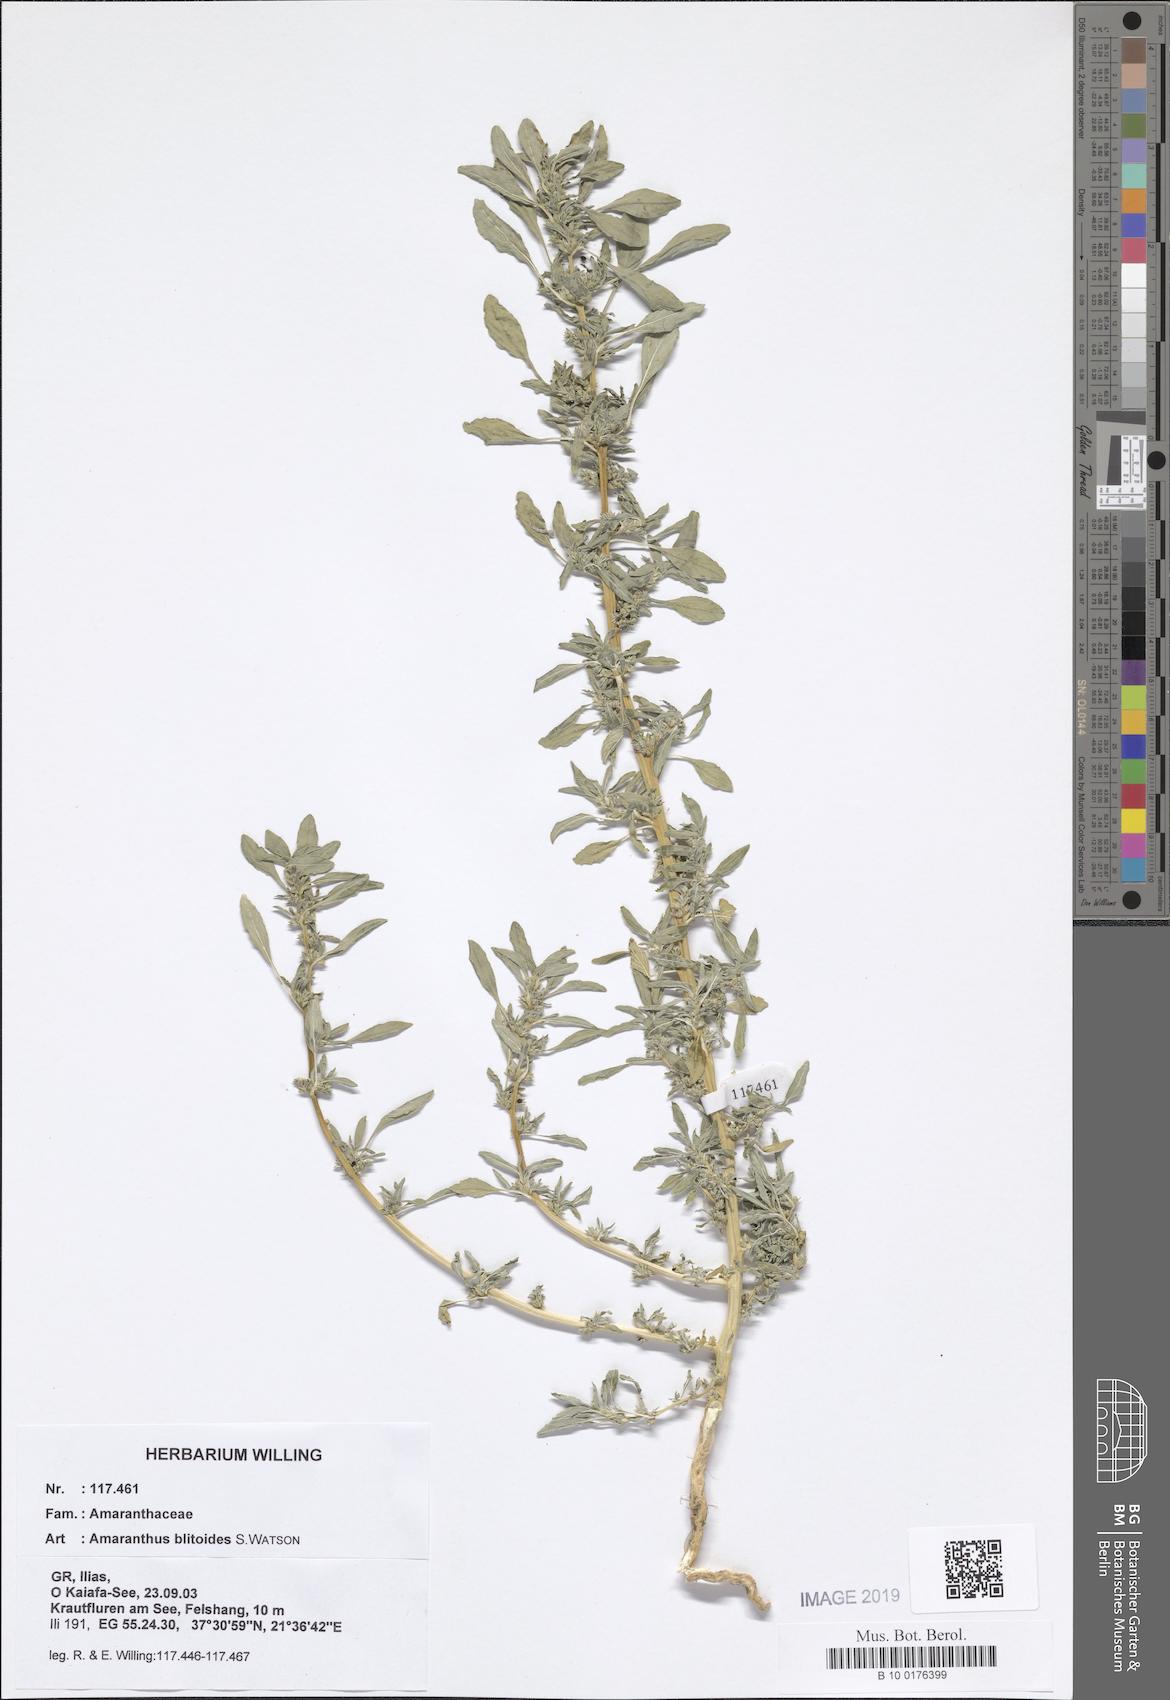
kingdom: Plantae
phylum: Tracheophyta
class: Magnoliopsida
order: Caryophyllales
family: Amaranthaceae
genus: Amaranthus
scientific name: Amaranthus blitoides
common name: Prostrate pigweed
